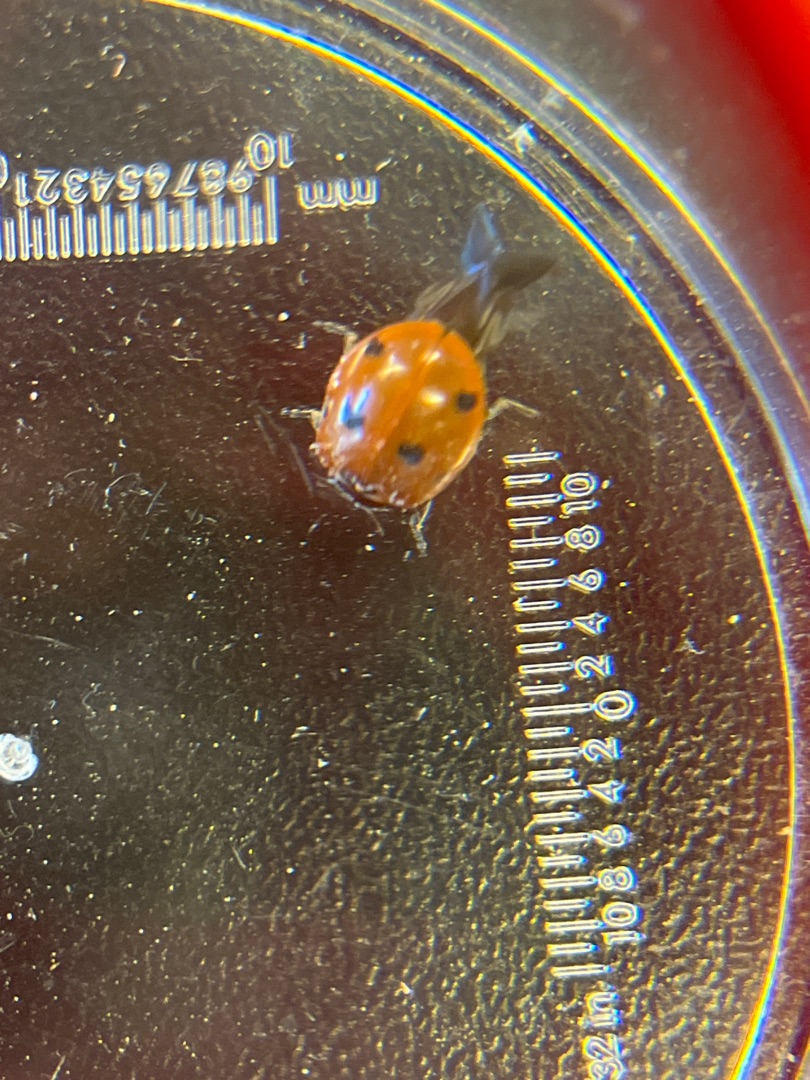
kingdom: Animalia
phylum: Arthropoda
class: Insecta
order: Coleoptera
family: Coccinellidae
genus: Coccinella
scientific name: Coccinella septempunctata
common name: Syvplettet mariehøne
